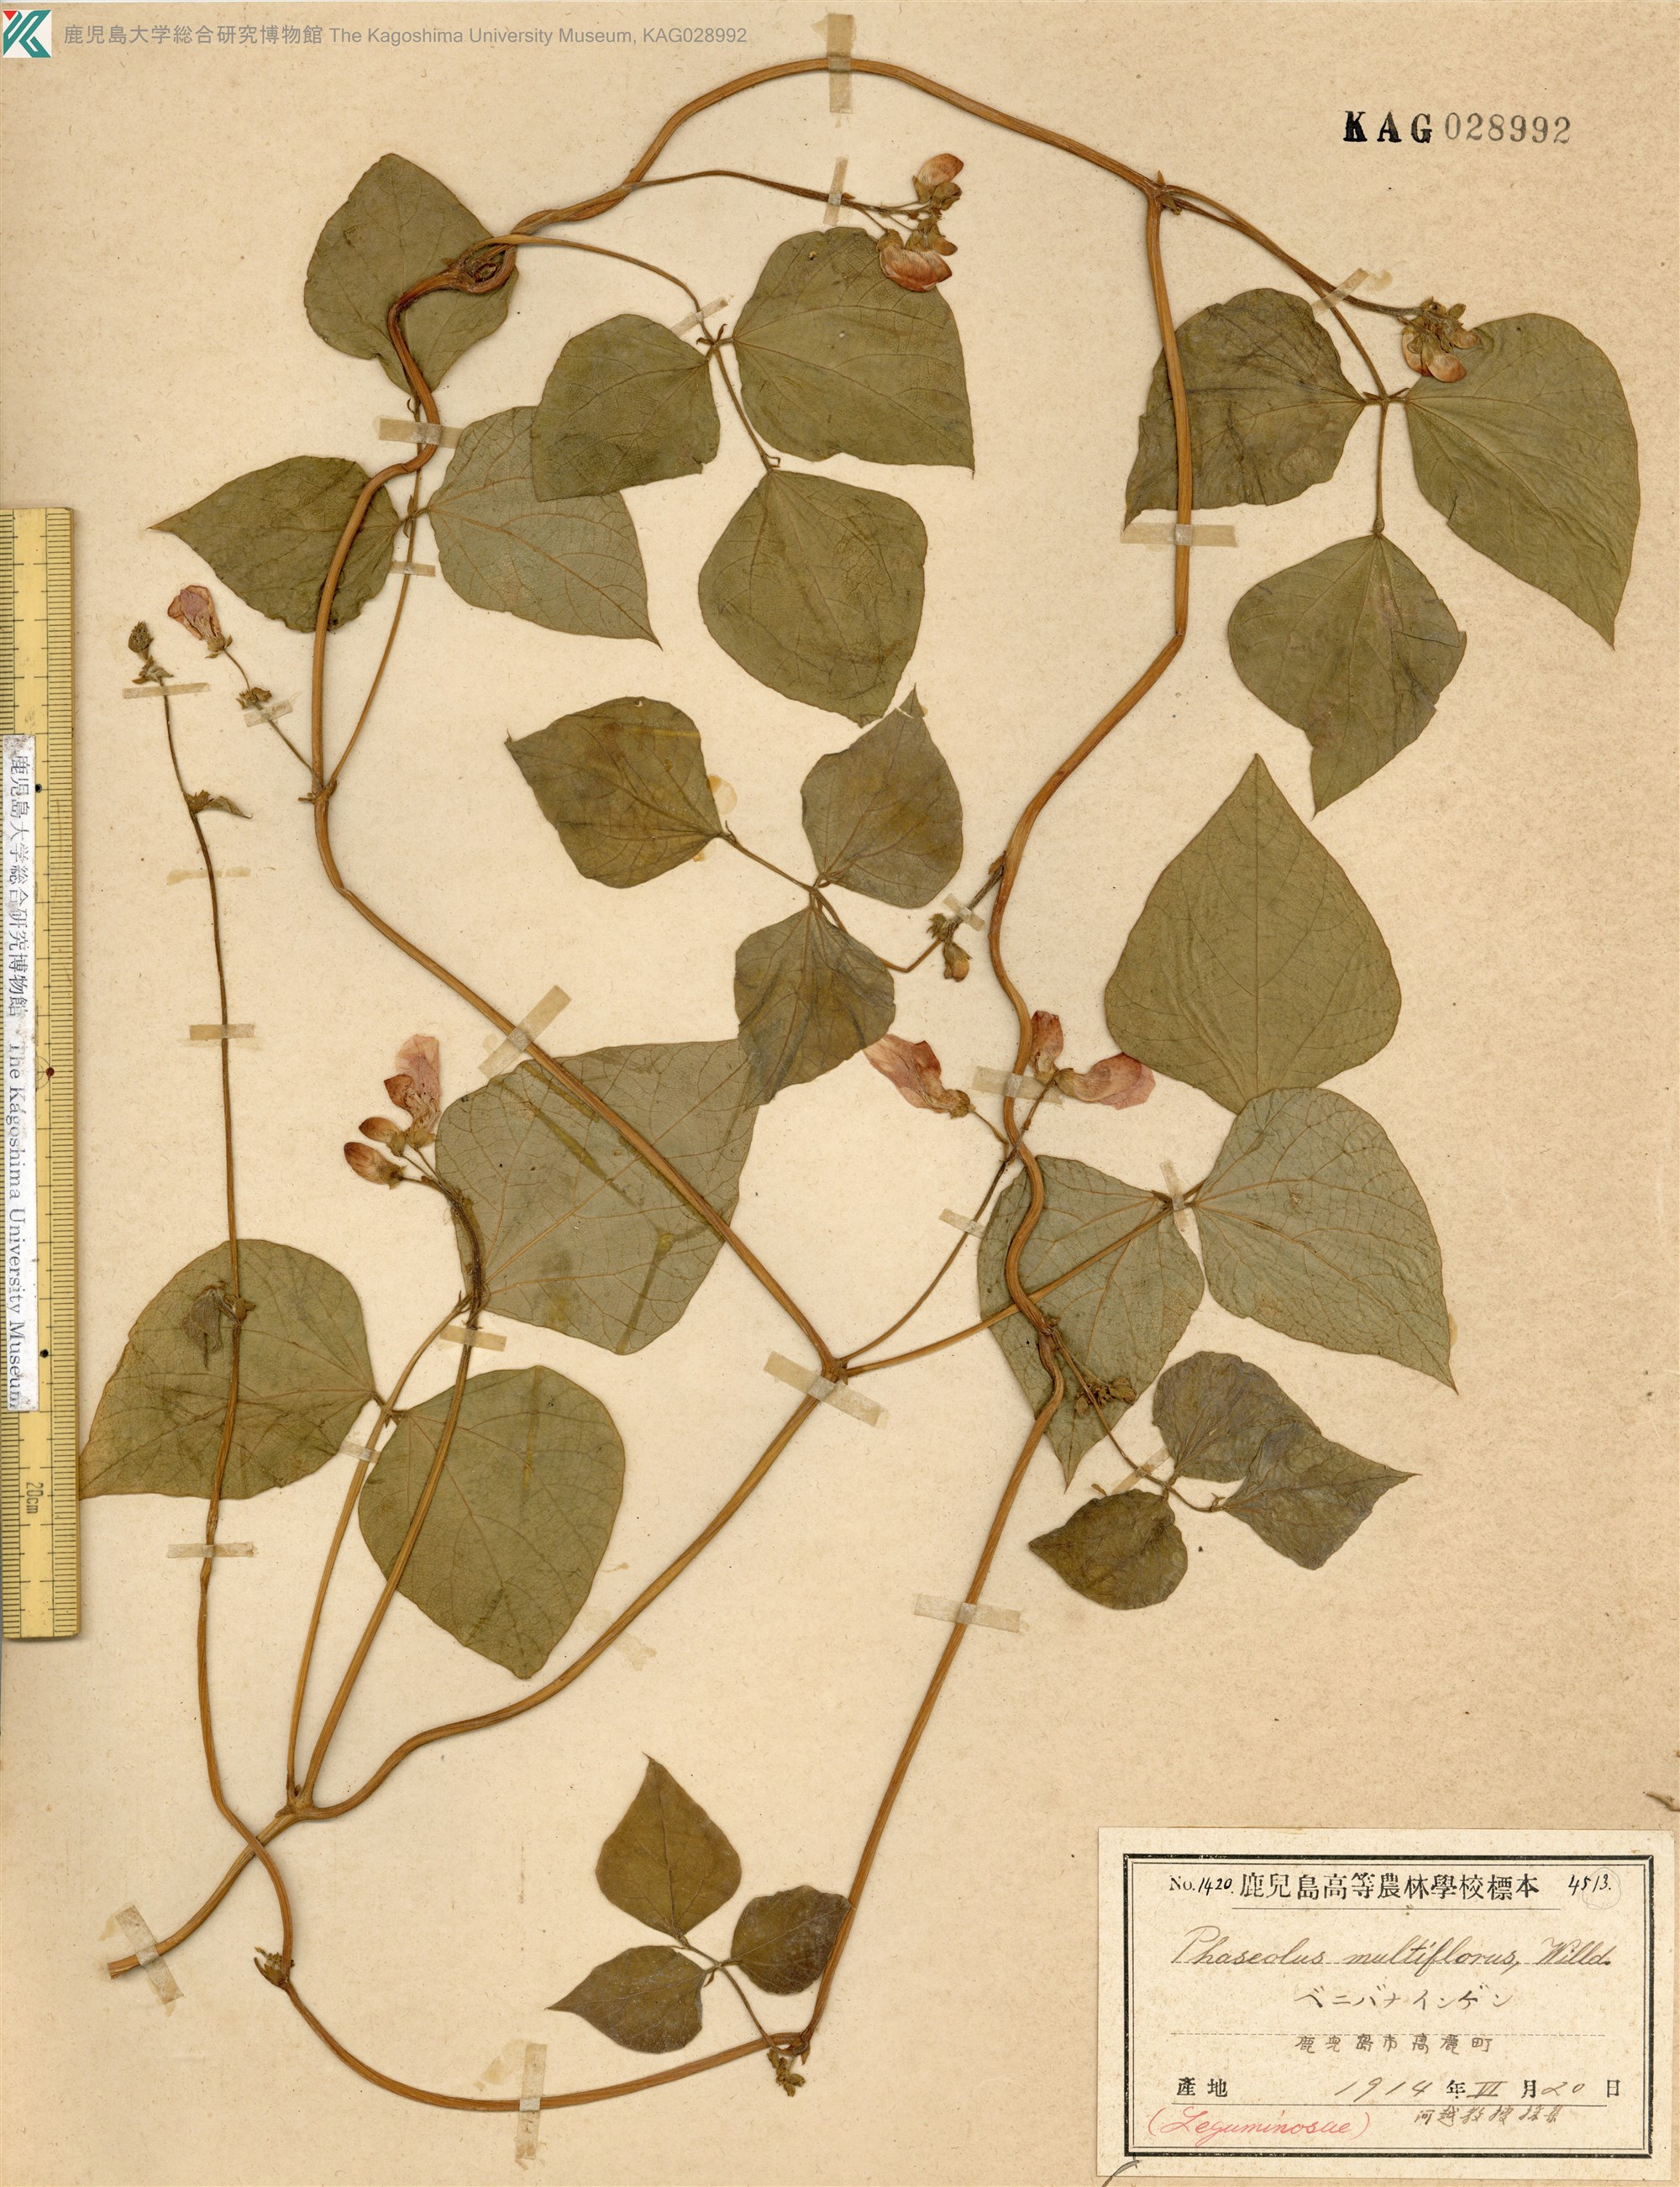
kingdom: Plantae
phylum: Tracheophyta
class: Magnoliopsida
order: Fabales
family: Fabaceae
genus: Phaseolus
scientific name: Phaseolus
